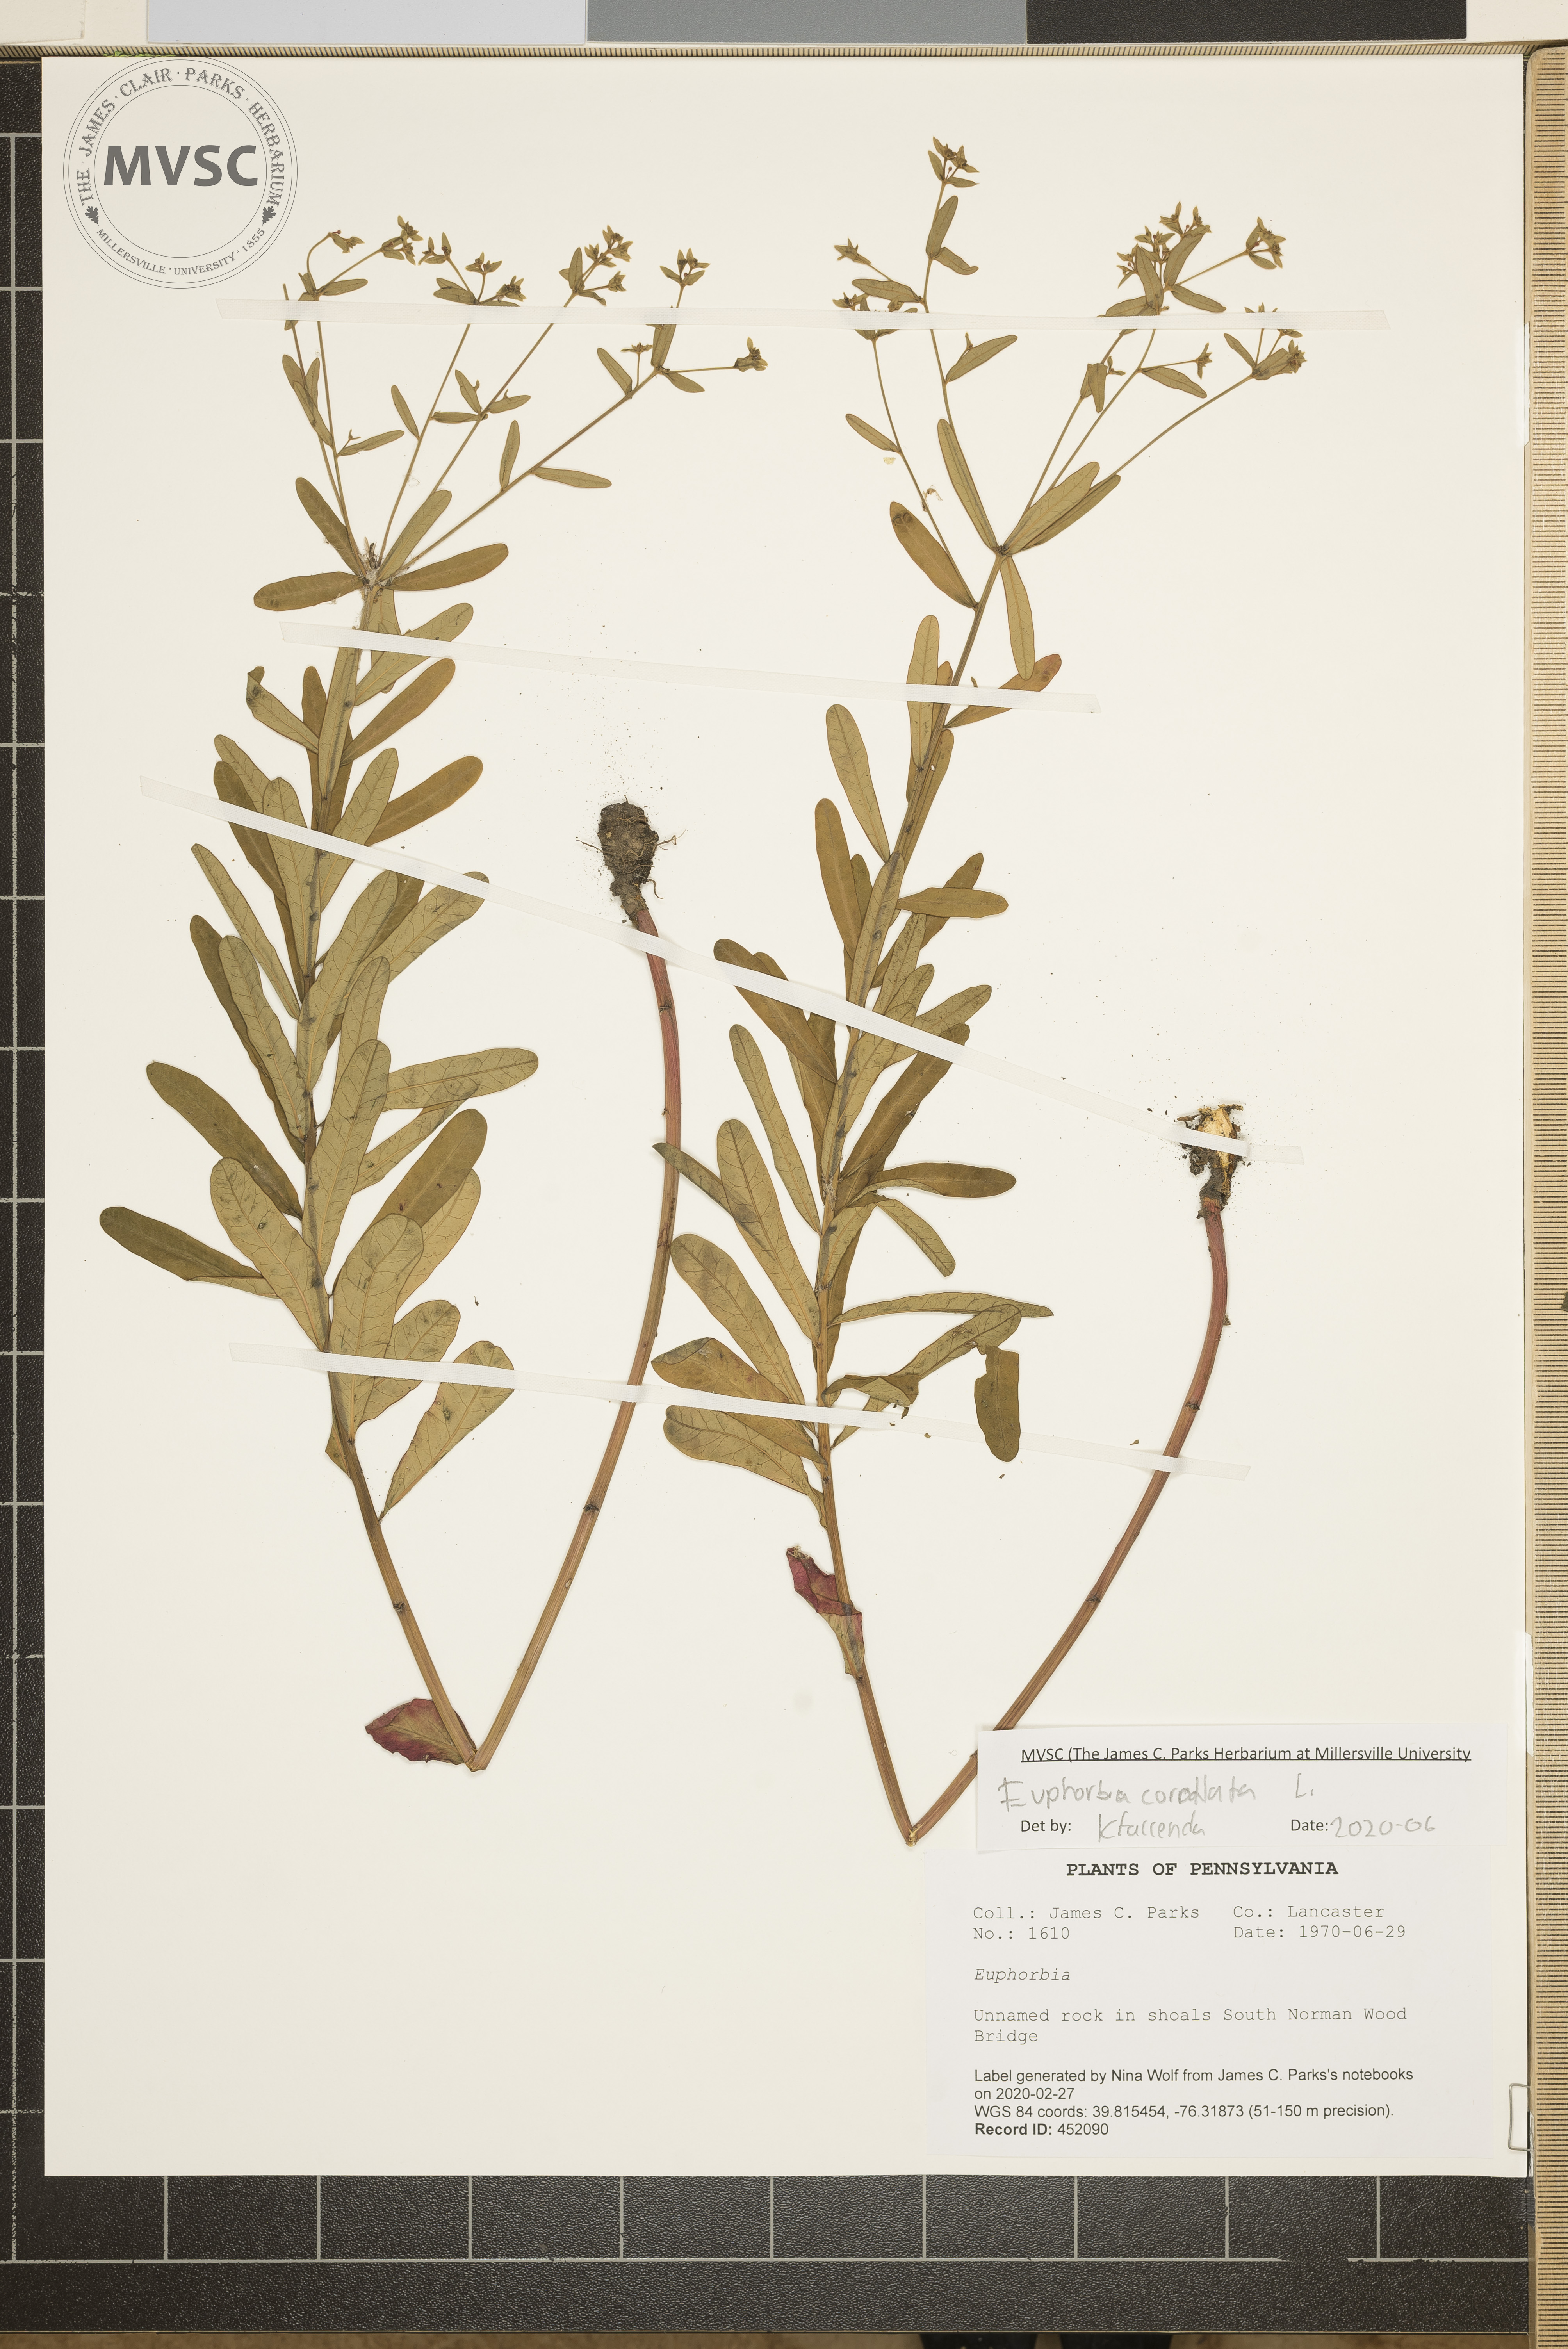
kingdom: Plantae
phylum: Tracheophyta
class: Magnoliopsida
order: Malpighiales
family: Euphorbiaceae
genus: Euphorbia
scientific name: Euphorbia corollata
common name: Flowering spurge
